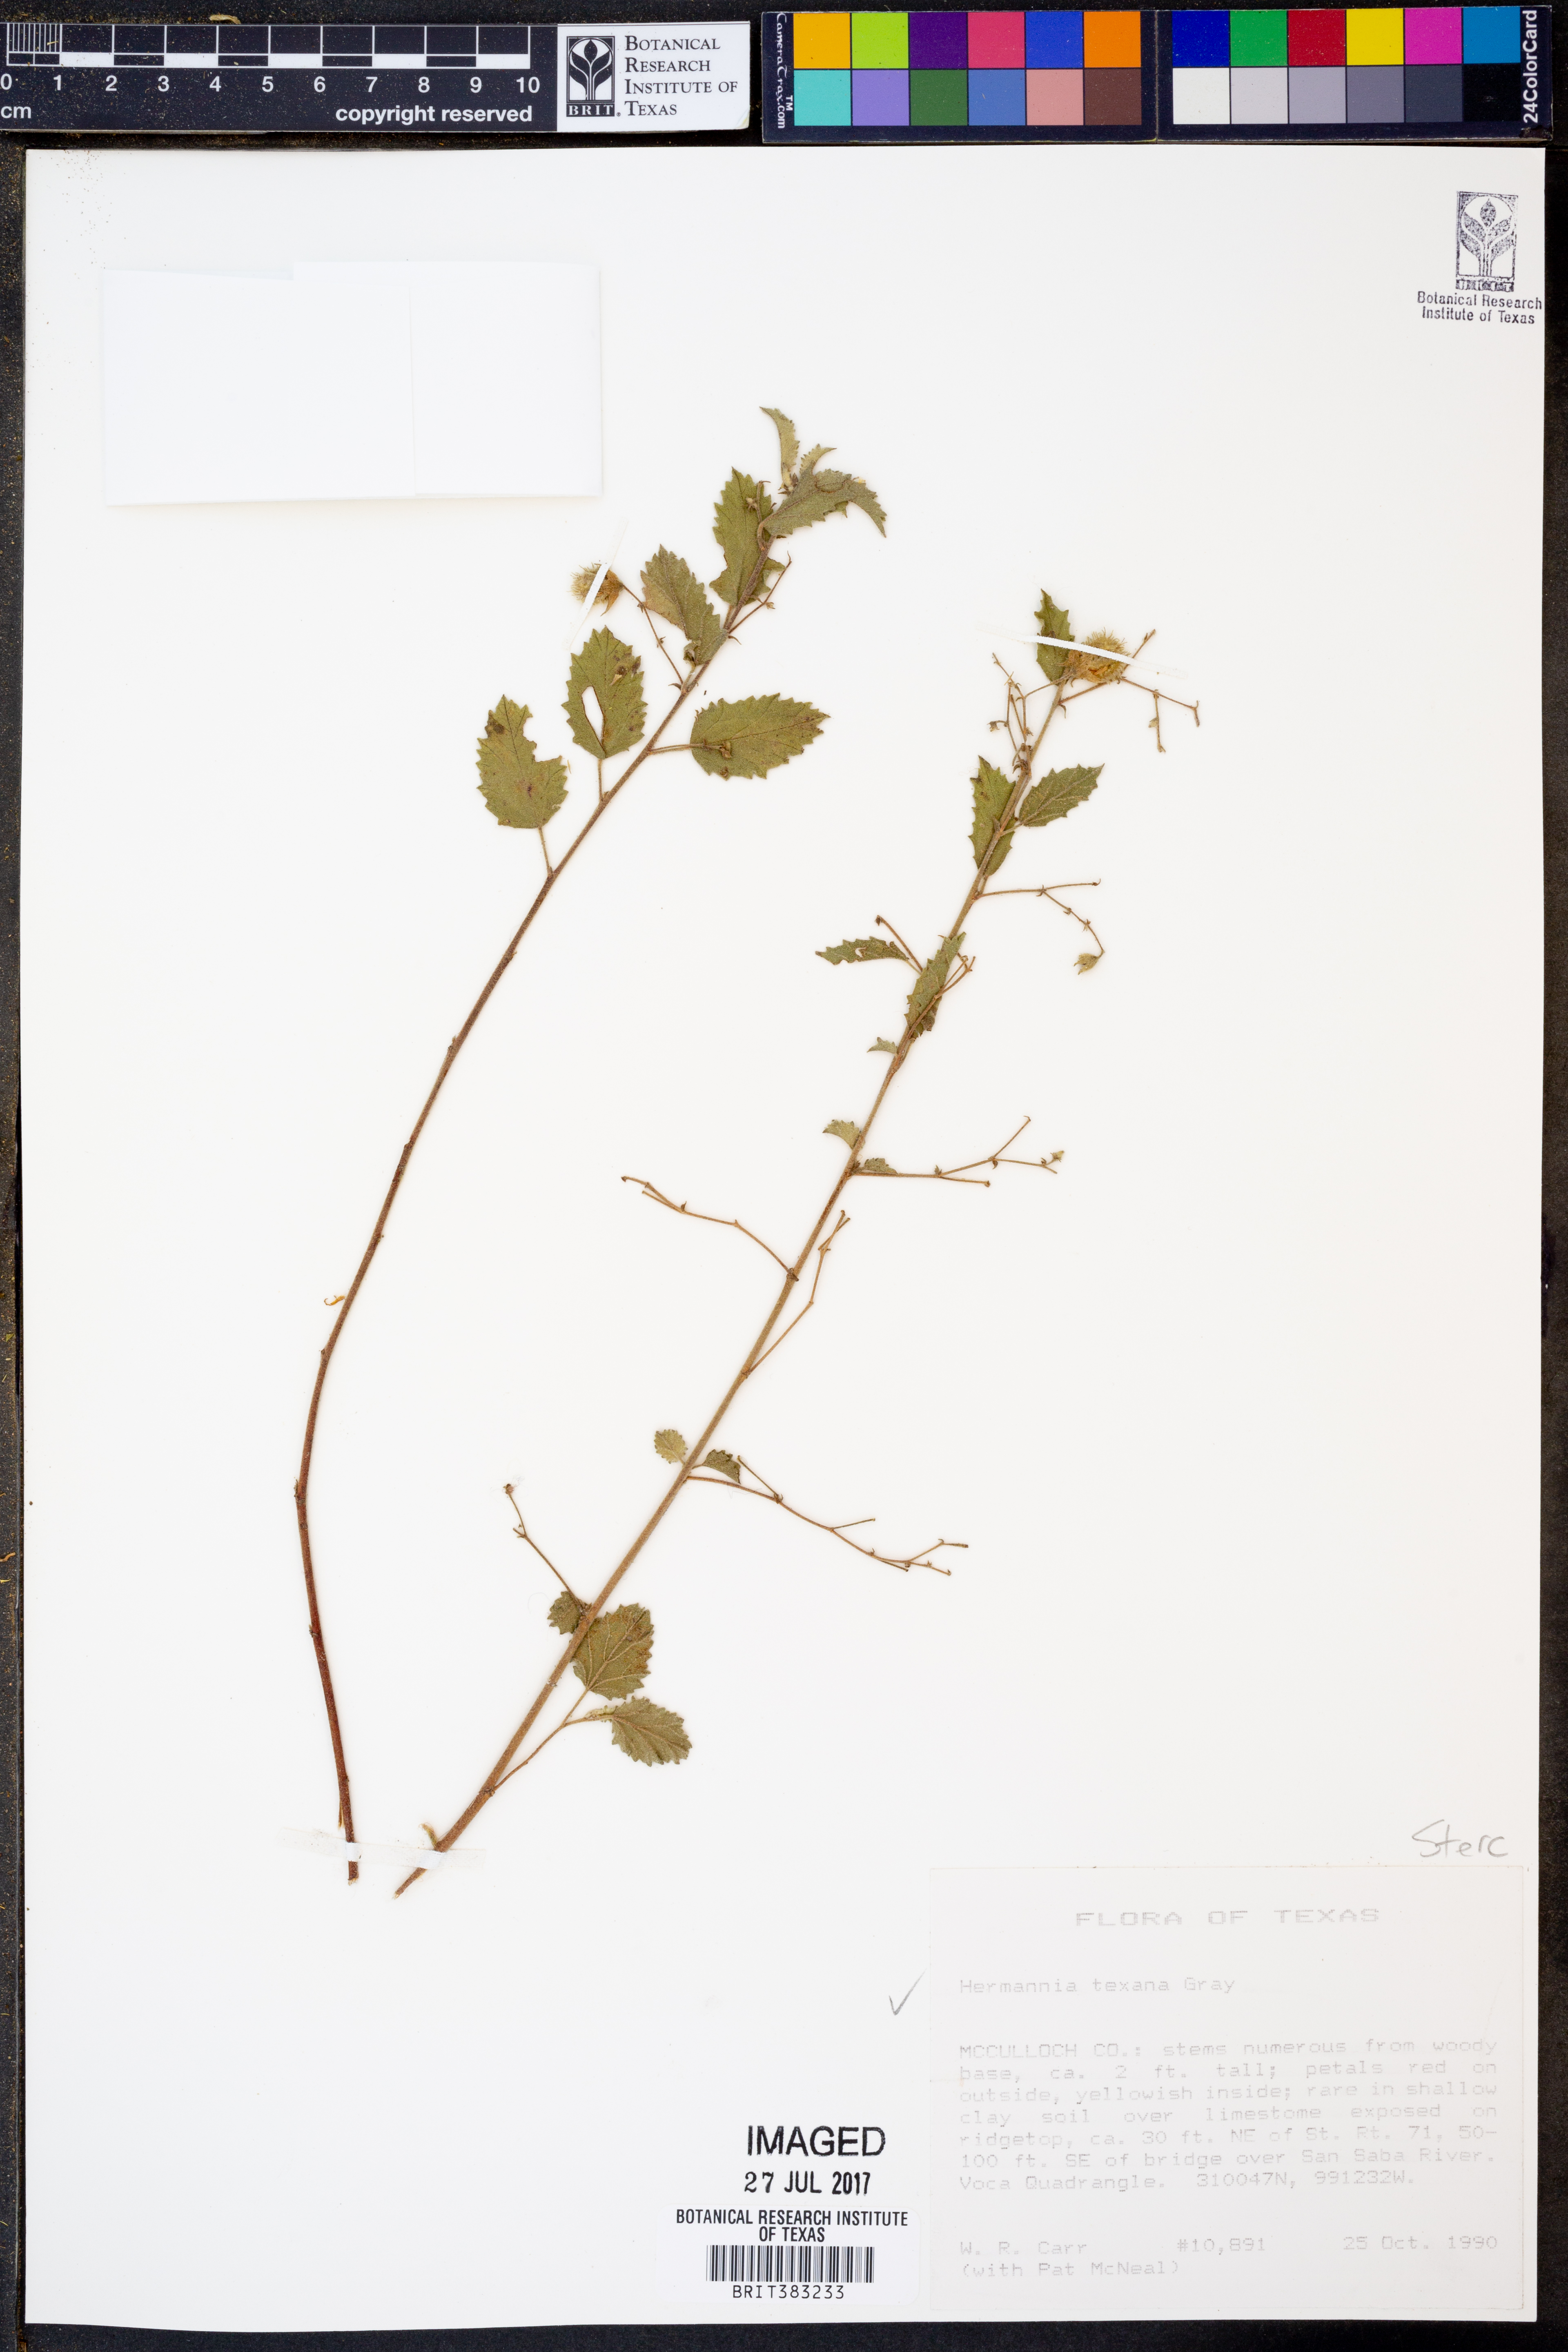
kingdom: Plantae
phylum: Tracheophyta
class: Magnoliopsida
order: Malvales
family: Malvaceae
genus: Hermannia
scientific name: Hermannia texana
